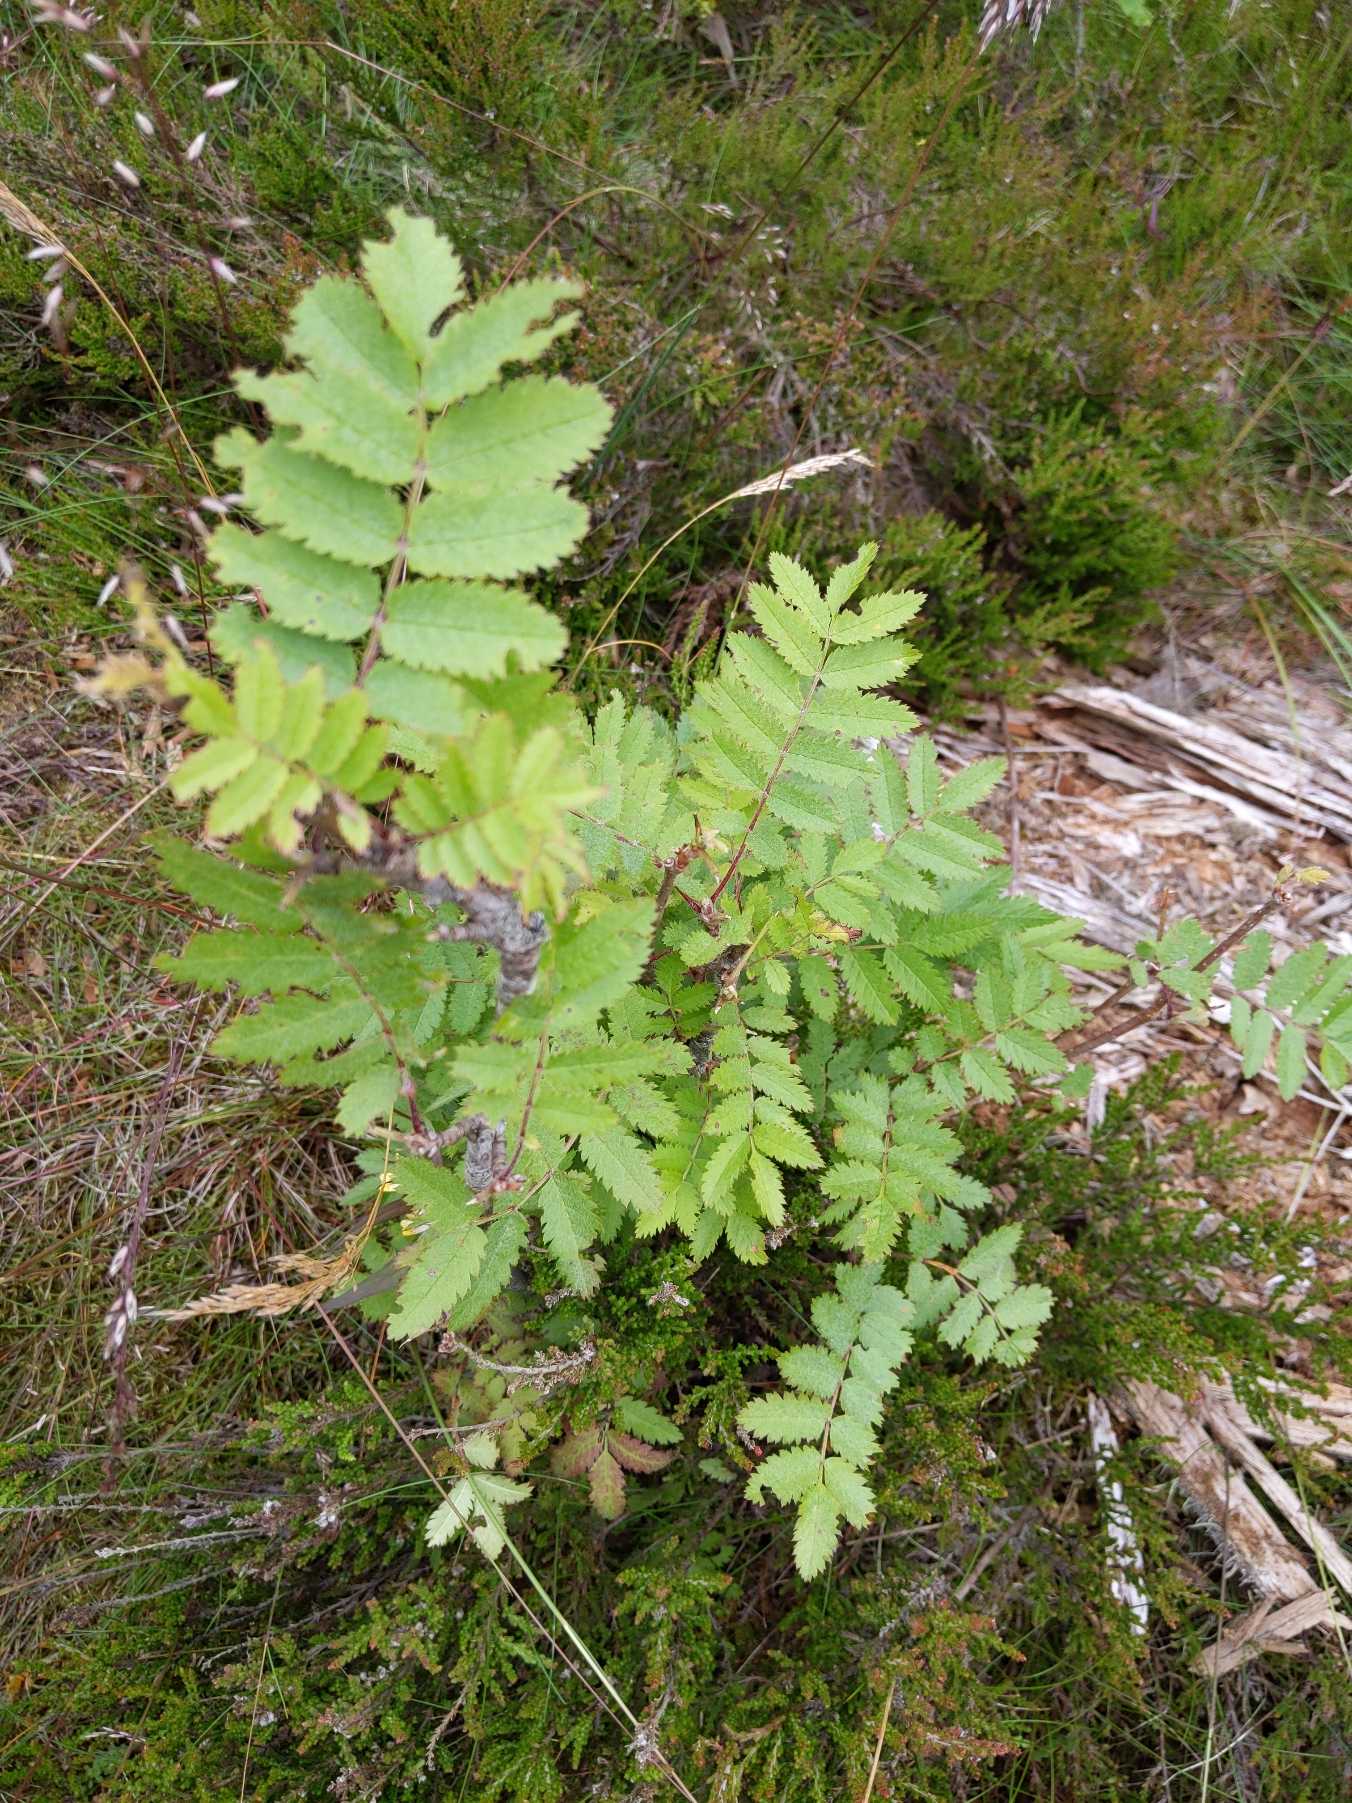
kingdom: Plantae
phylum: Tracheophyta
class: Magnoliopsida
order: Rosales
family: Rosaceae
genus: Sorbus
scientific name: Sorbus aucuparia
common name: Almindelig røn
